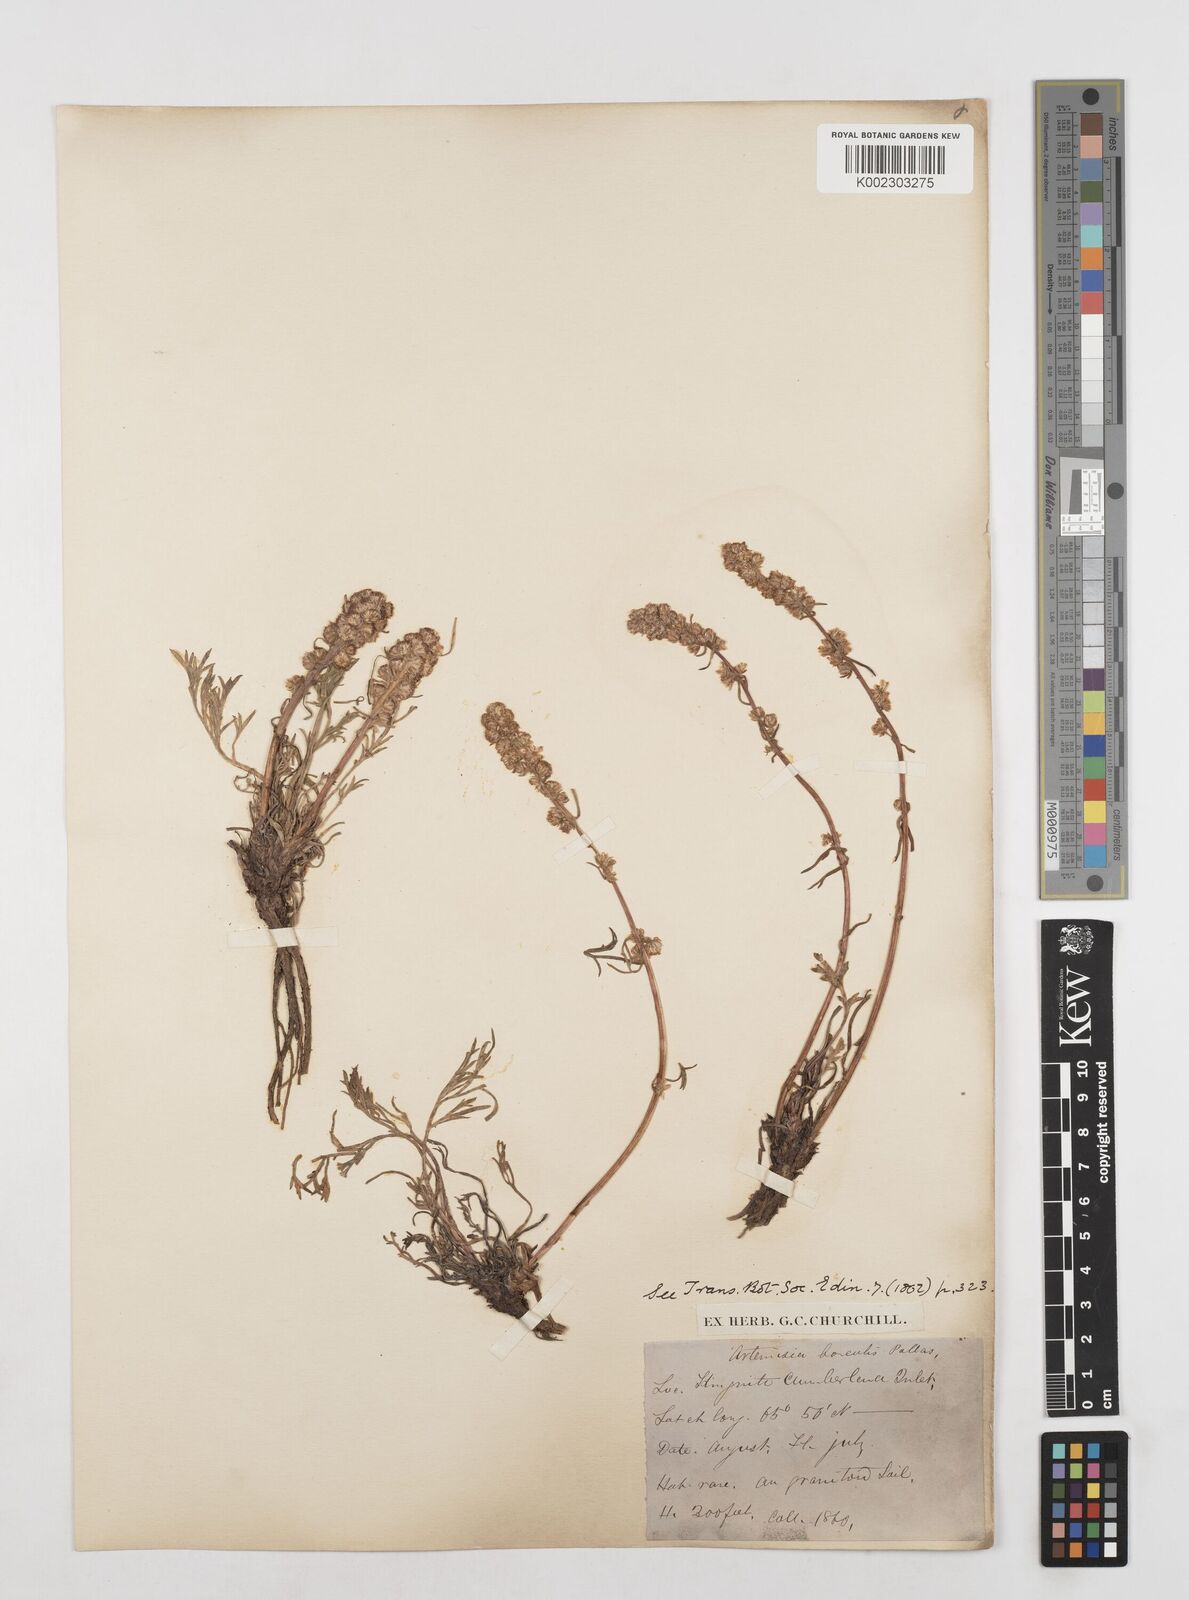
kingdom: Plantae
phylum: Tracheophyta
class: Magnoliopsida
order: Asterales
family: Asteraceae
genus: Artemisia
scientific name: Artemisia borealis
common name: Boreal sage
